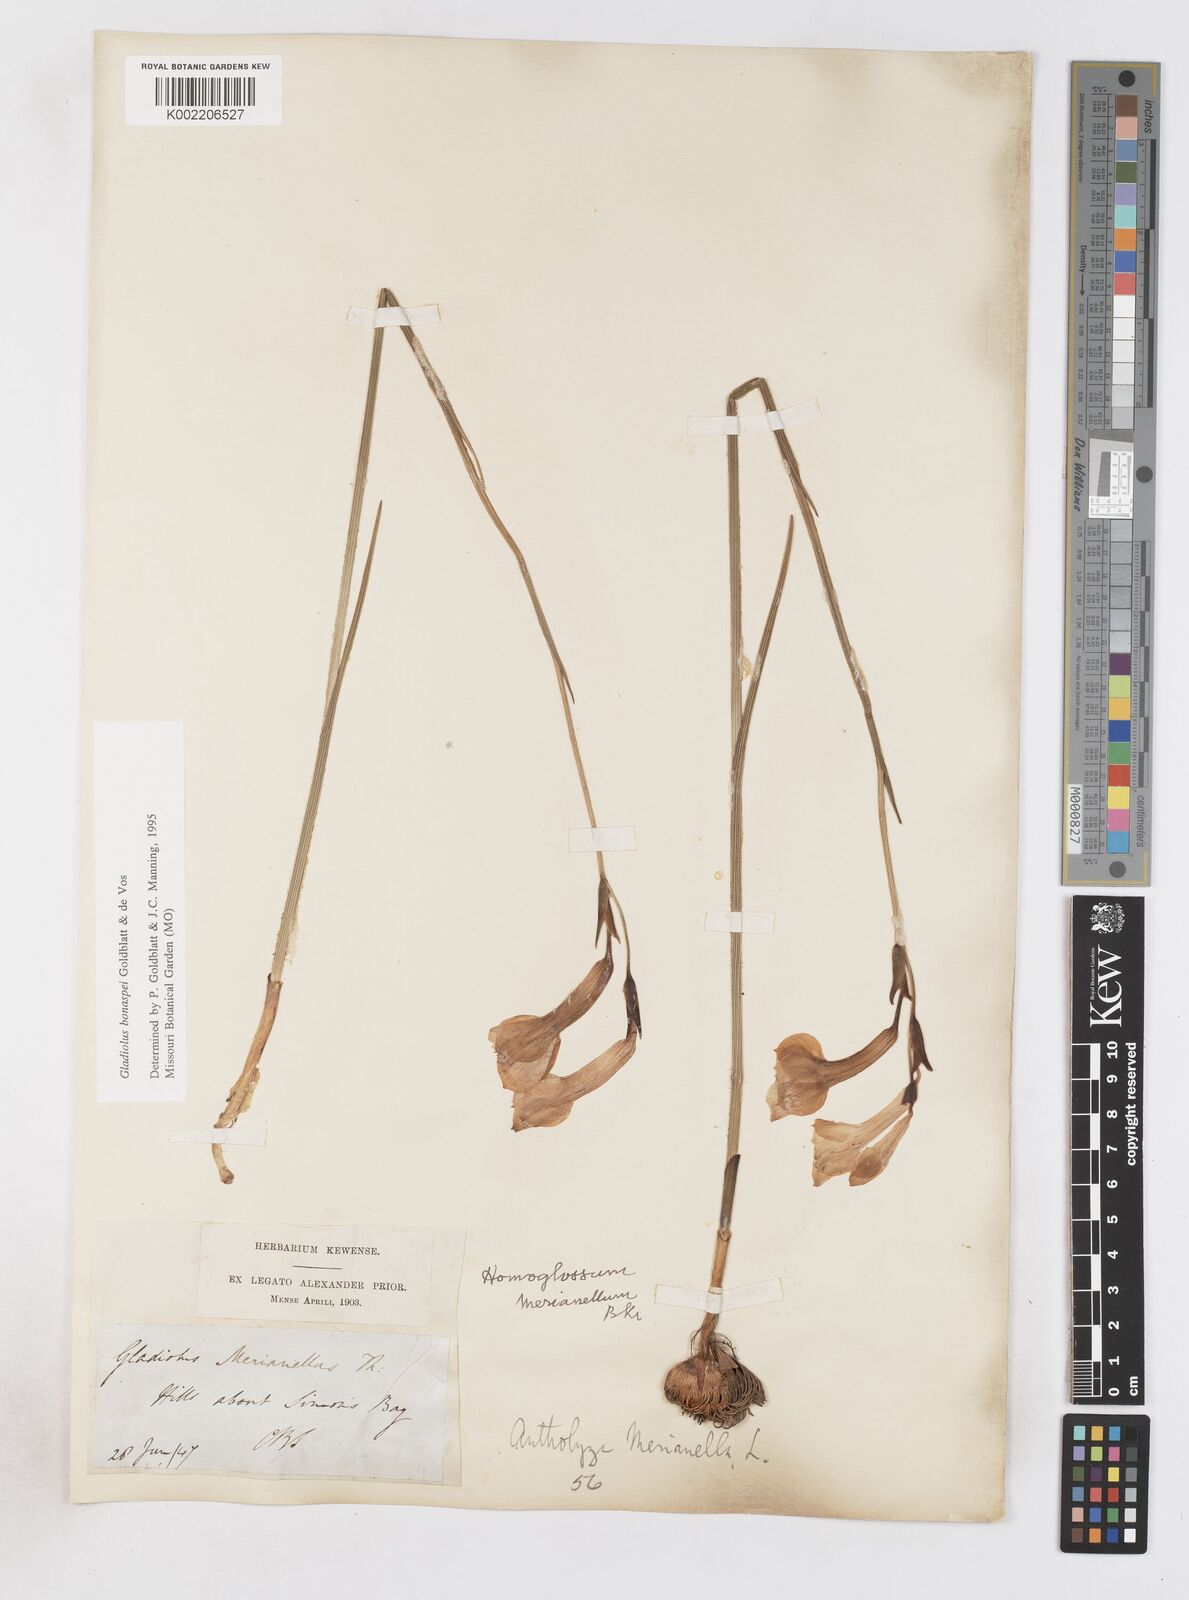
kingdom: Plantae
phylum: Tracheophyta
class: Liliopsida
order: Asparagales
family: Iridaceae
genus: Gladiolus
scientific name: Gladiolus merianellus
